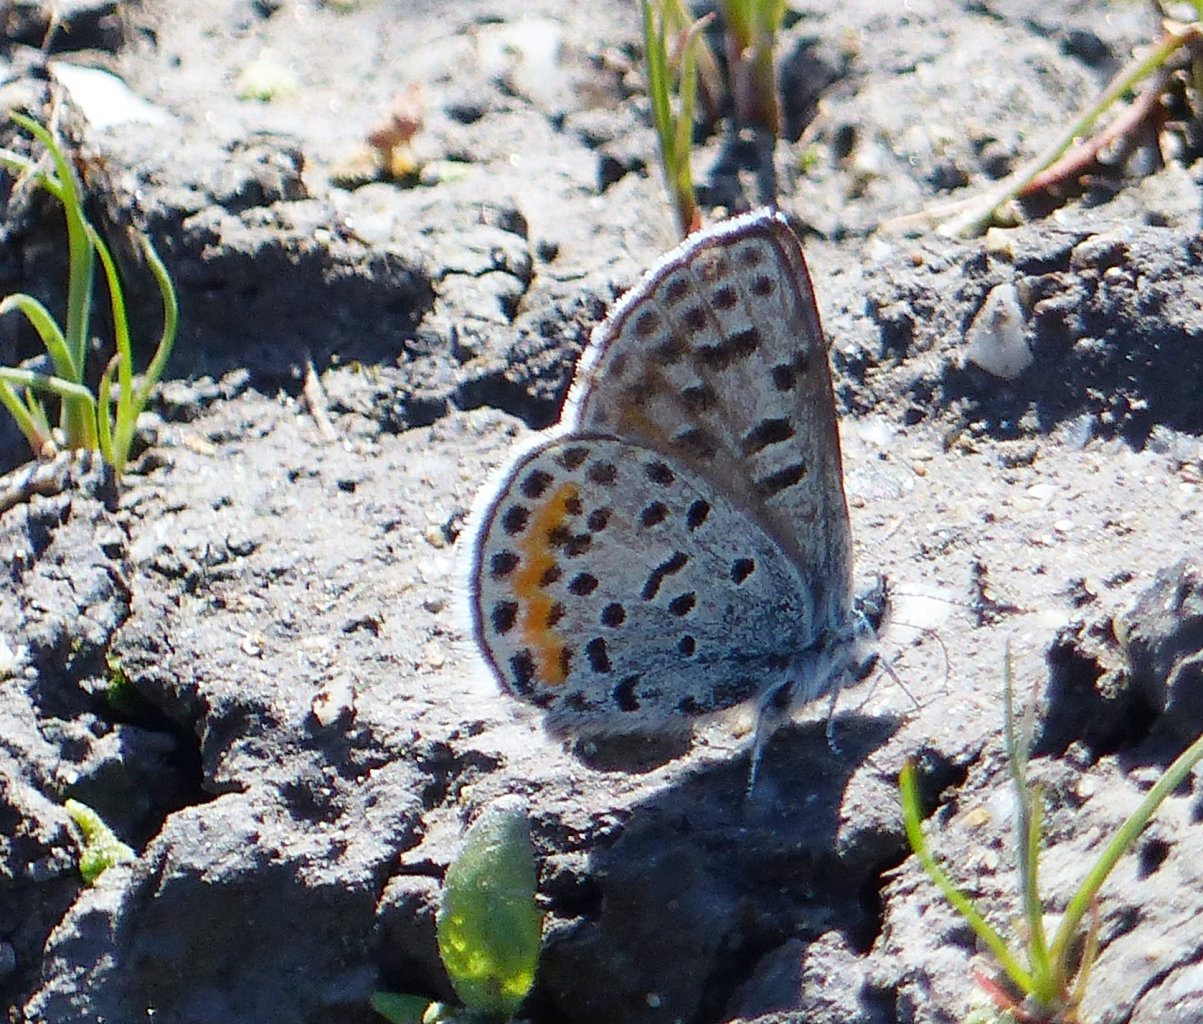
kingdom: Animalia
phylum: Arthropoda
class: Insecta
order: Lepidoptera
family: Lycaenidae
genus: Euphilotes
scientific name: Euphilotes battoides
